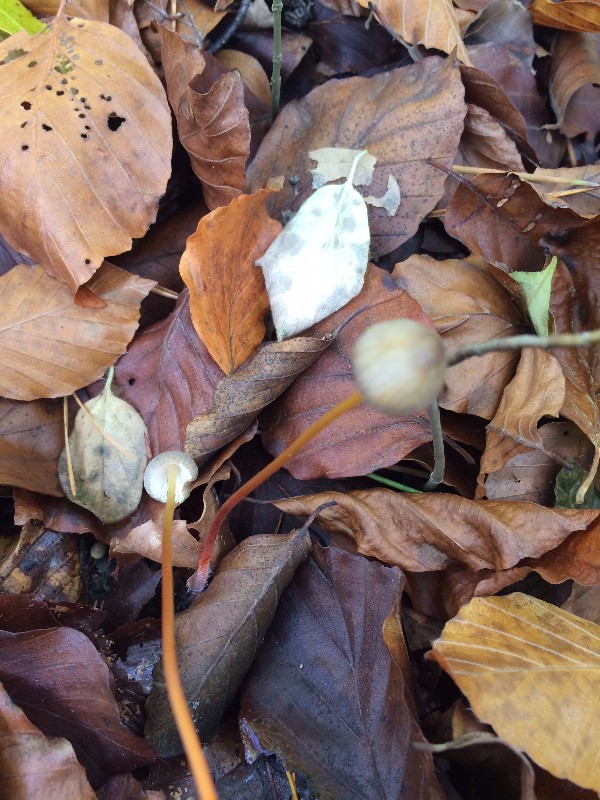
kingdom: Fungi
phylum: Basidiomycota
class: Agaricomycetes
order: Agaricales
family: Mycenaceae
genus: Mycena
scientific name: Mycena crocata
